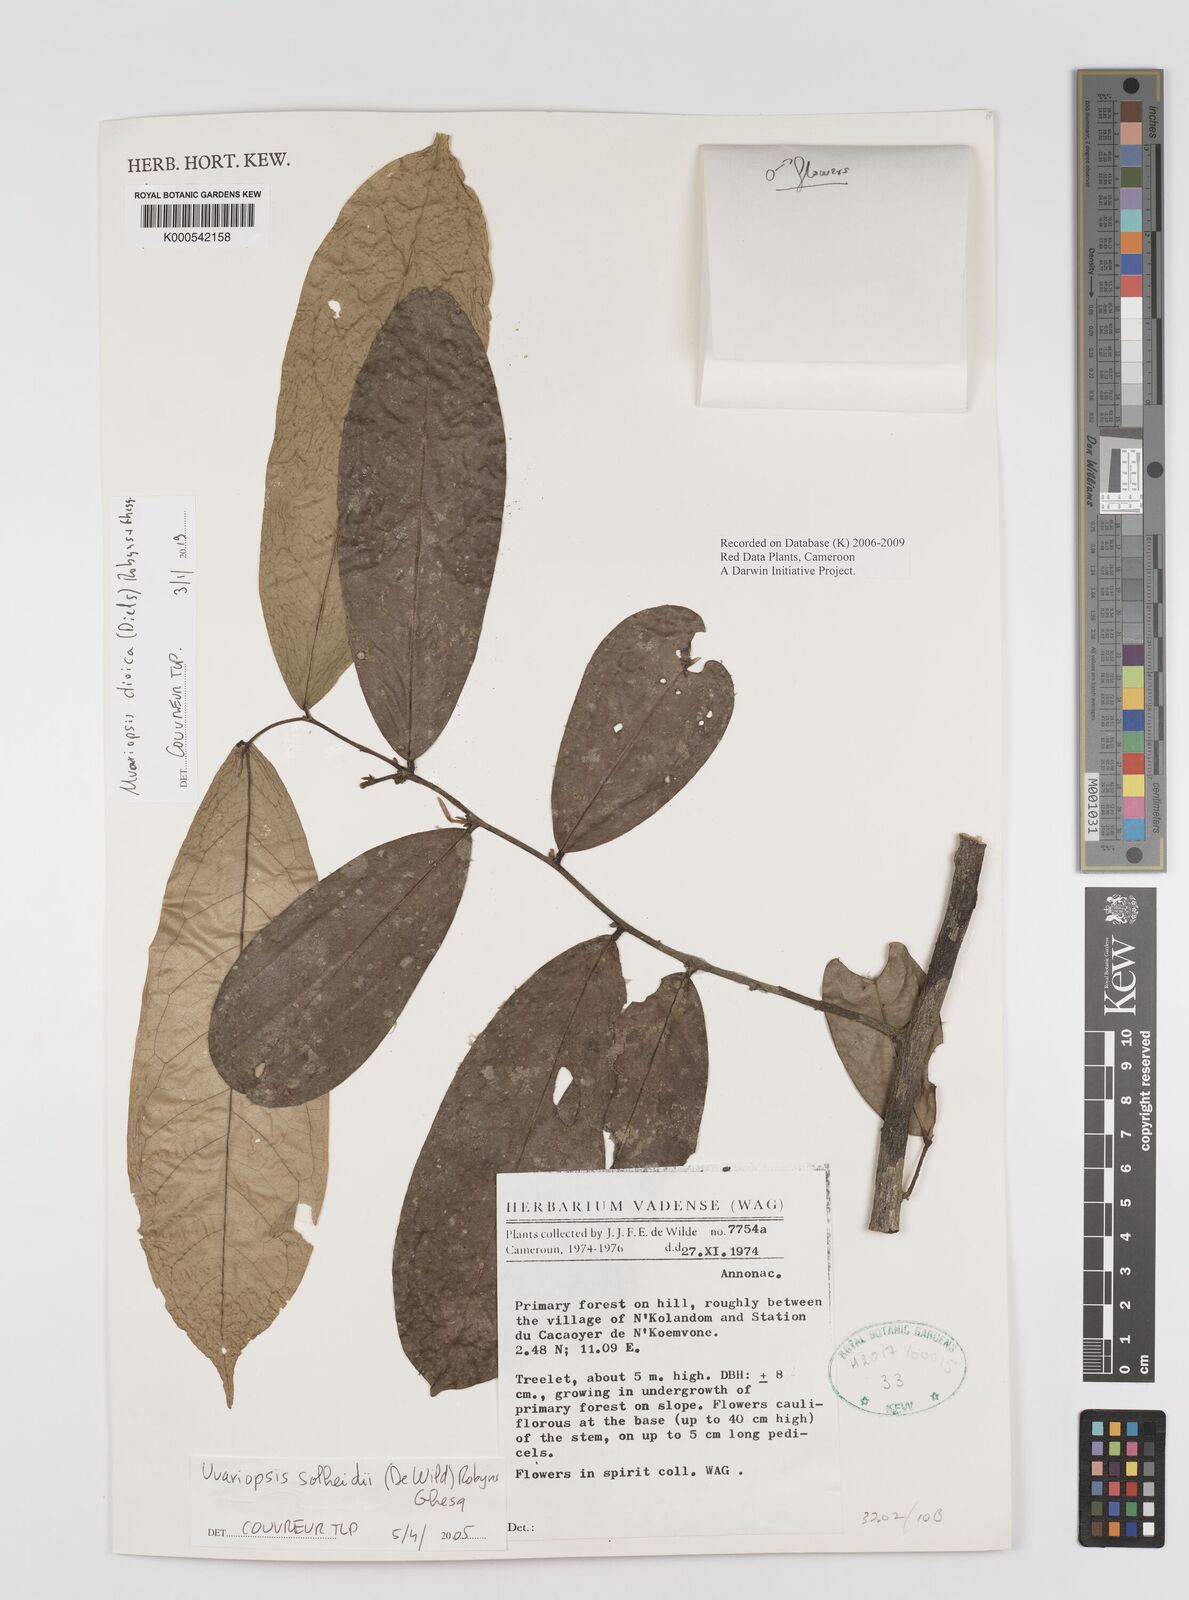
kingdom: Plantae
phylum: Tracheophyta
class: Magnoliopsida
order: Magnoliales
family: Annonaceae
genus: Uvariopsis
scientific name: Uvariopsis solheidii
